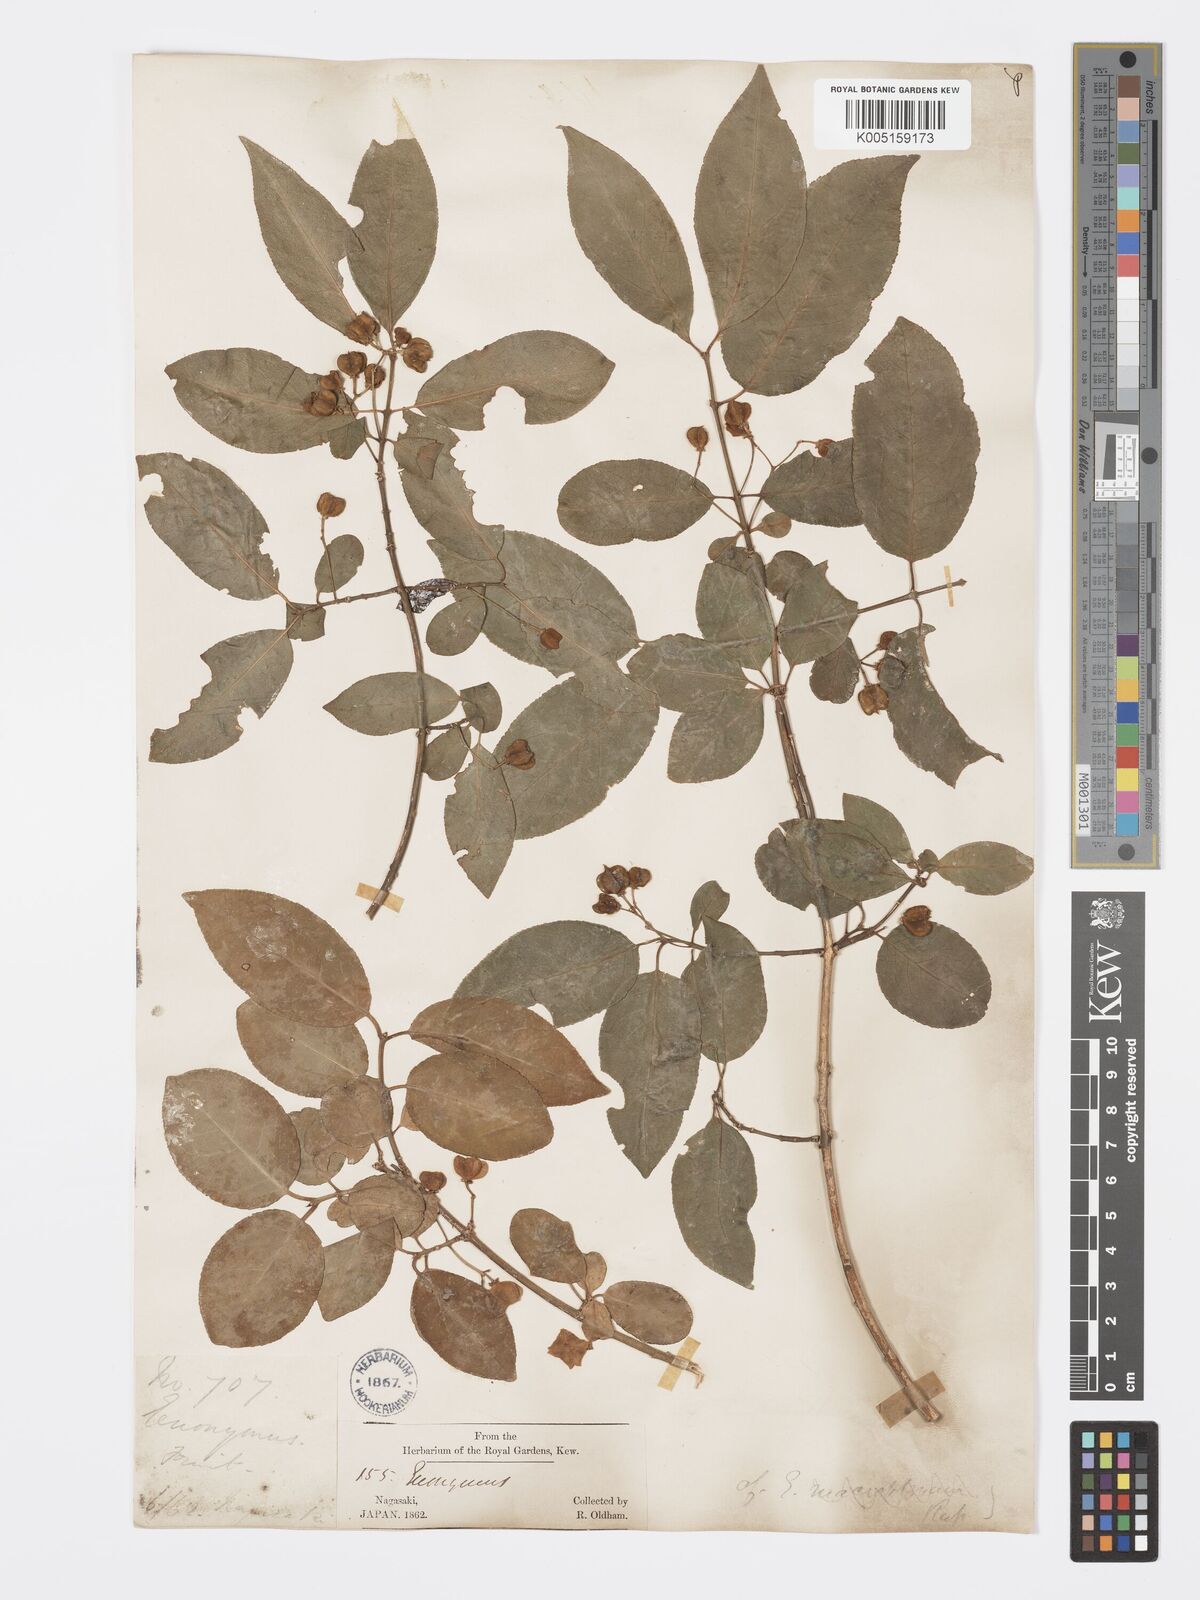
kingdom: Plantae
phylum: Tracheophyta
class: Magnoliopsida
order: Celastrales
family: Celastraceae
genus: Euonymus
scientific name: Euonymus hamiltonianus
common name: Hamilton's spindletree
